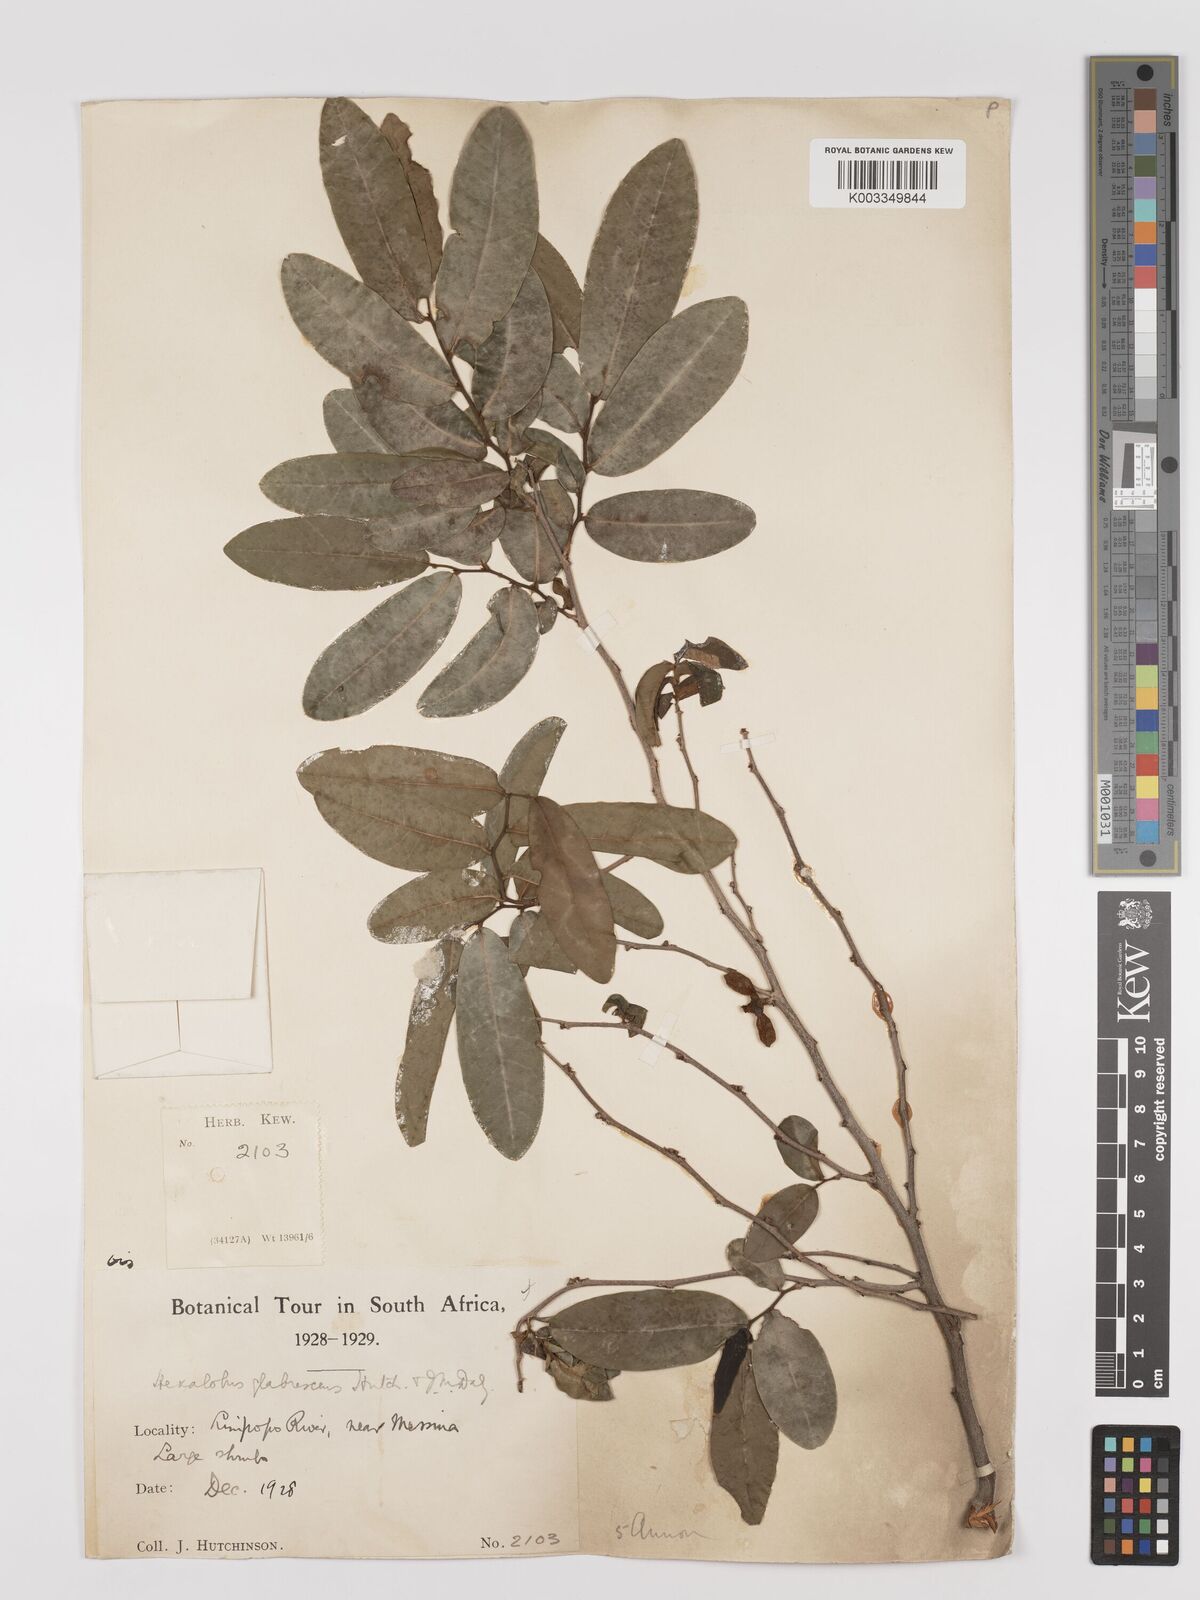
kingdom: Plantae
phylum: Tracheophyta
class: Magnoliopsida
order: Magnoliales
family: Annonaceae
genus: Hexalobus
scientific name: Hexalobus monopetalus
